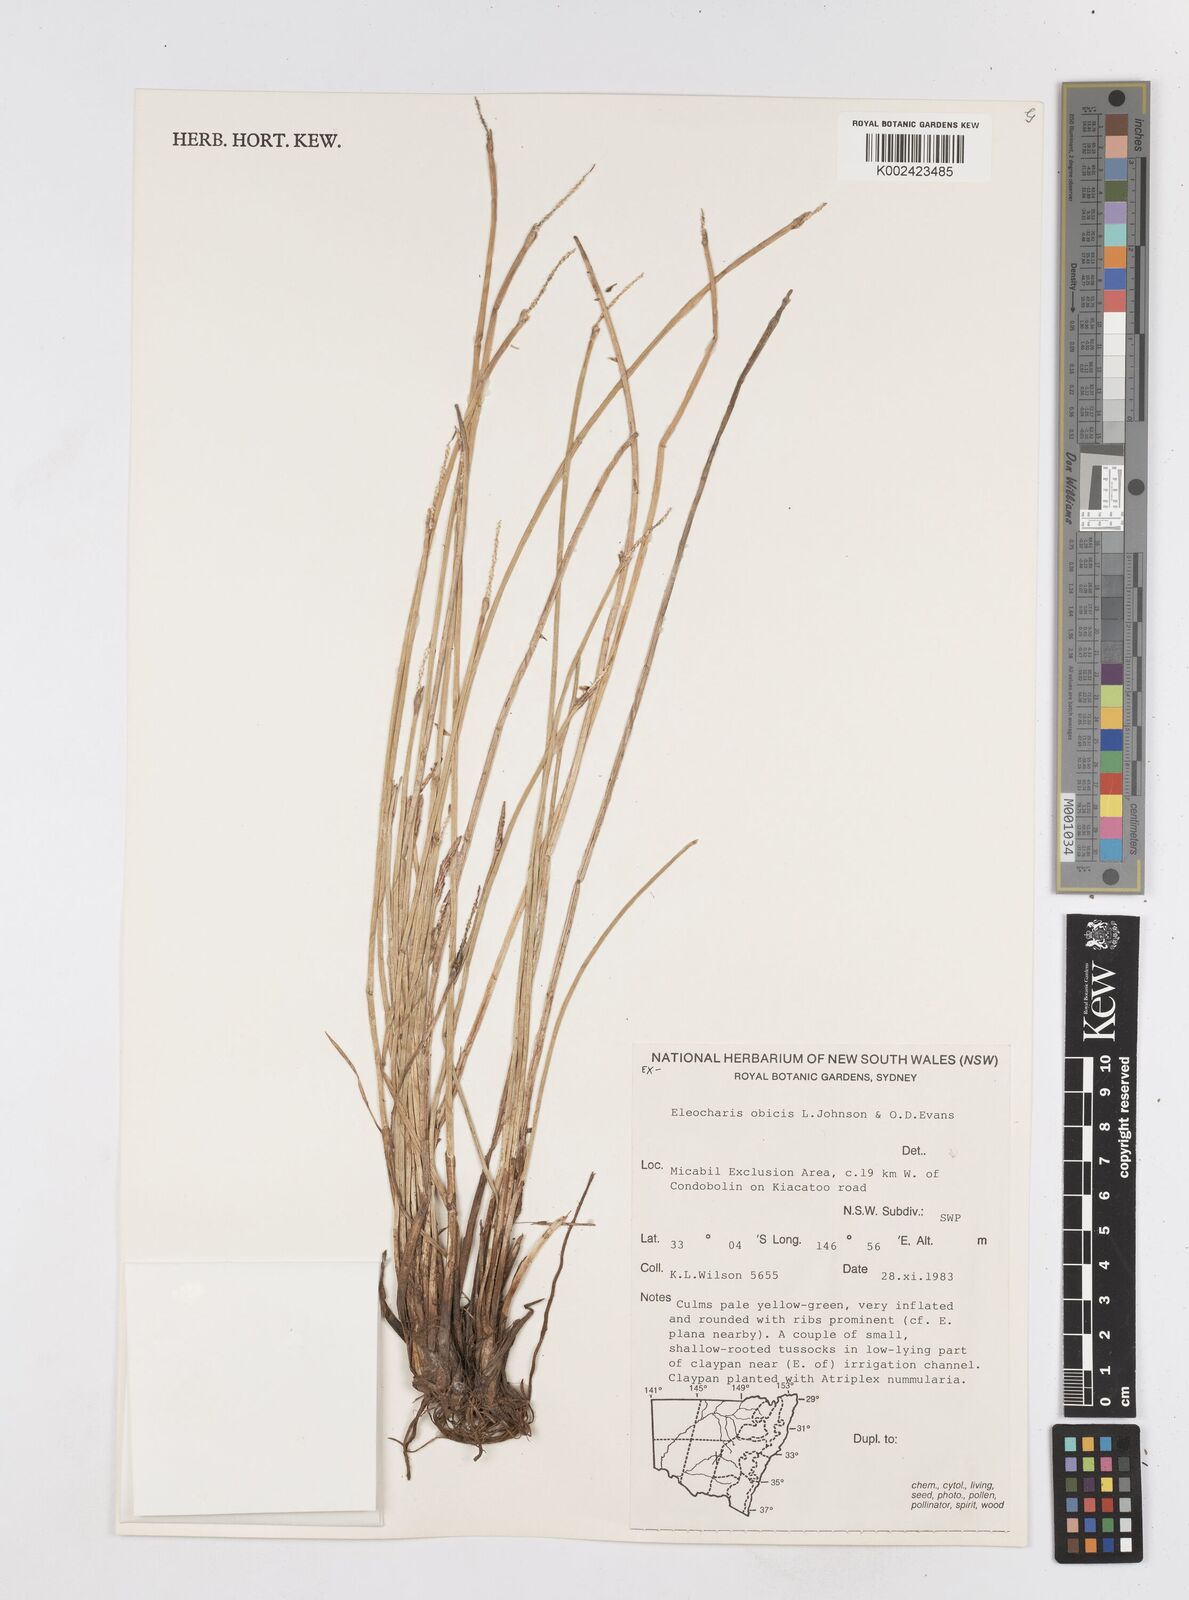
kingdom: Plantae
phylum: Tracheophyta
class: Liliopsida
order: Poales
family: Cyperaceae
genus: Eleocharis
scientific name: Eleocharis obicis
